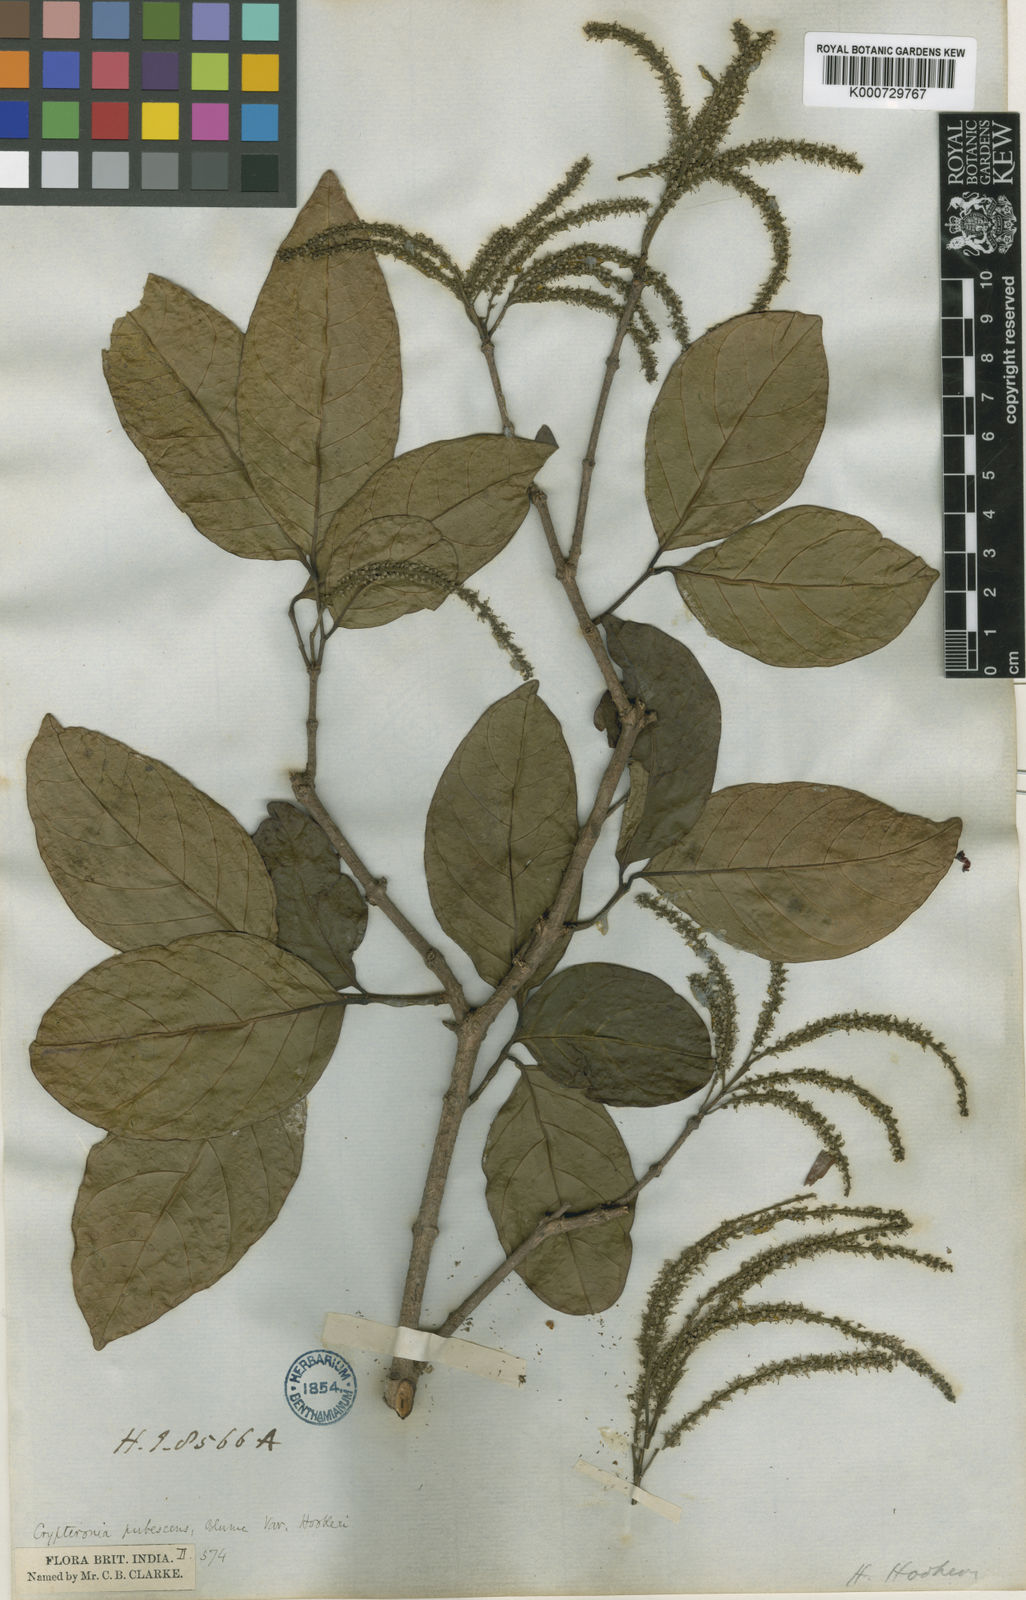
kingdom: Plantae
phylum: Tracheophyta
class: Magnoliopsida
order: Myrtales
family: Crypteroniaceae
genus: Crypteronia
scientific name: Crypteronia paniculata
